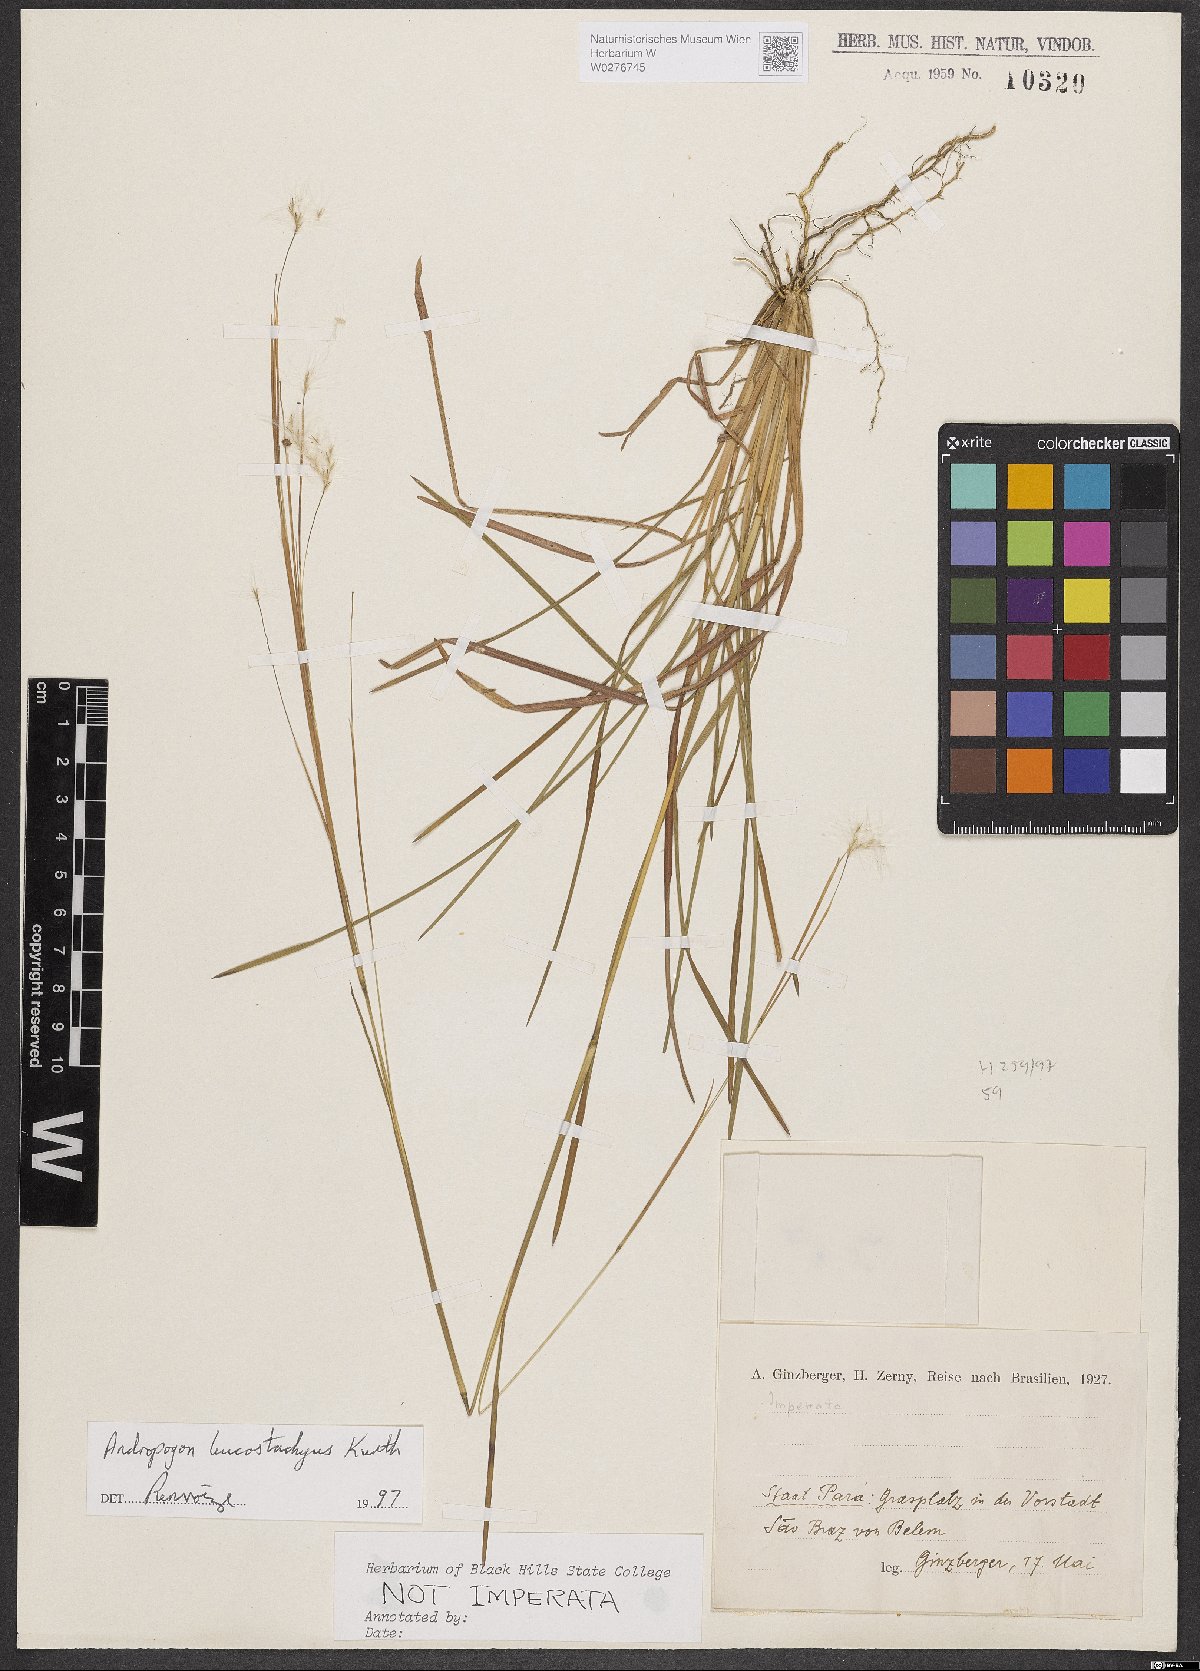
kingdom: Plantae
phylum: Tracheophyta
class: Liliopsida
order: Poales
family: Poaceae
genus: Andropogon
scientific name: Andropogon leucostachyus
